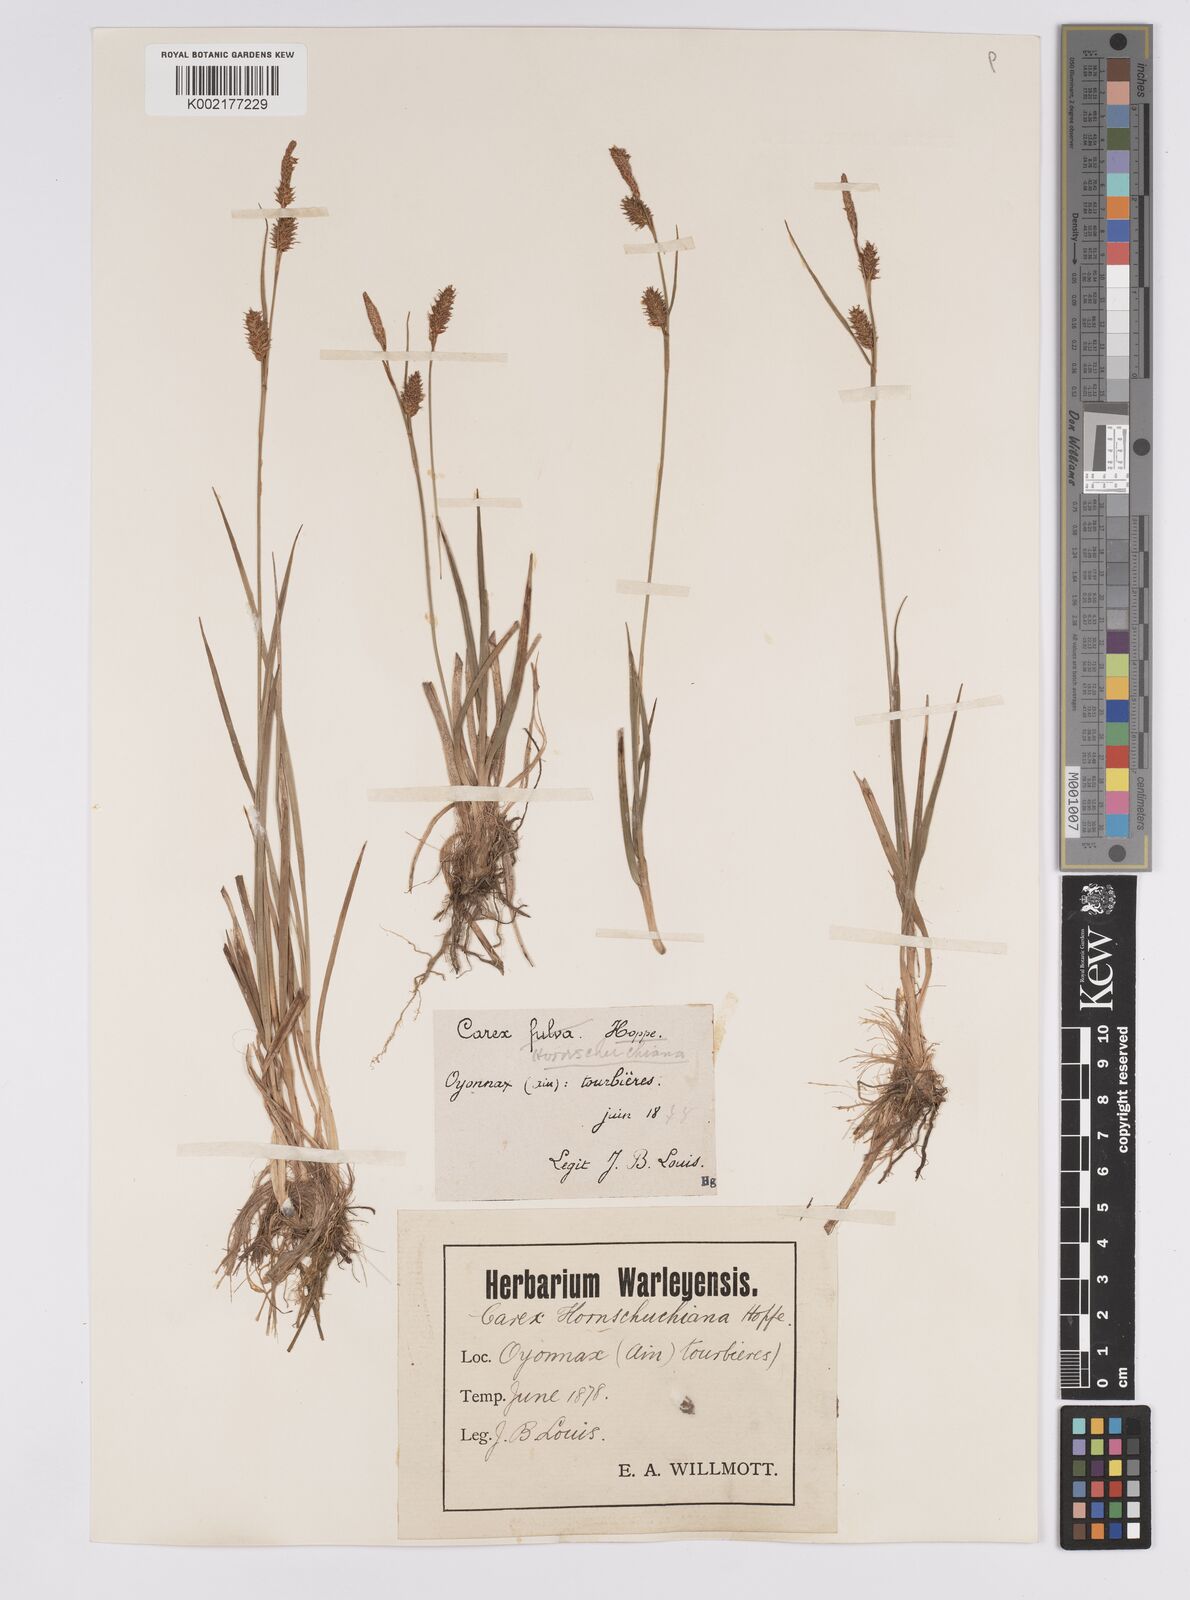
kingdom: Plantae
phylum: Tracheophyta
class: Liliopsida
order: Poales
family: Cyperaceae
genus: Carex
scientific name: Carex hostiana
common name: Tawny sedge
